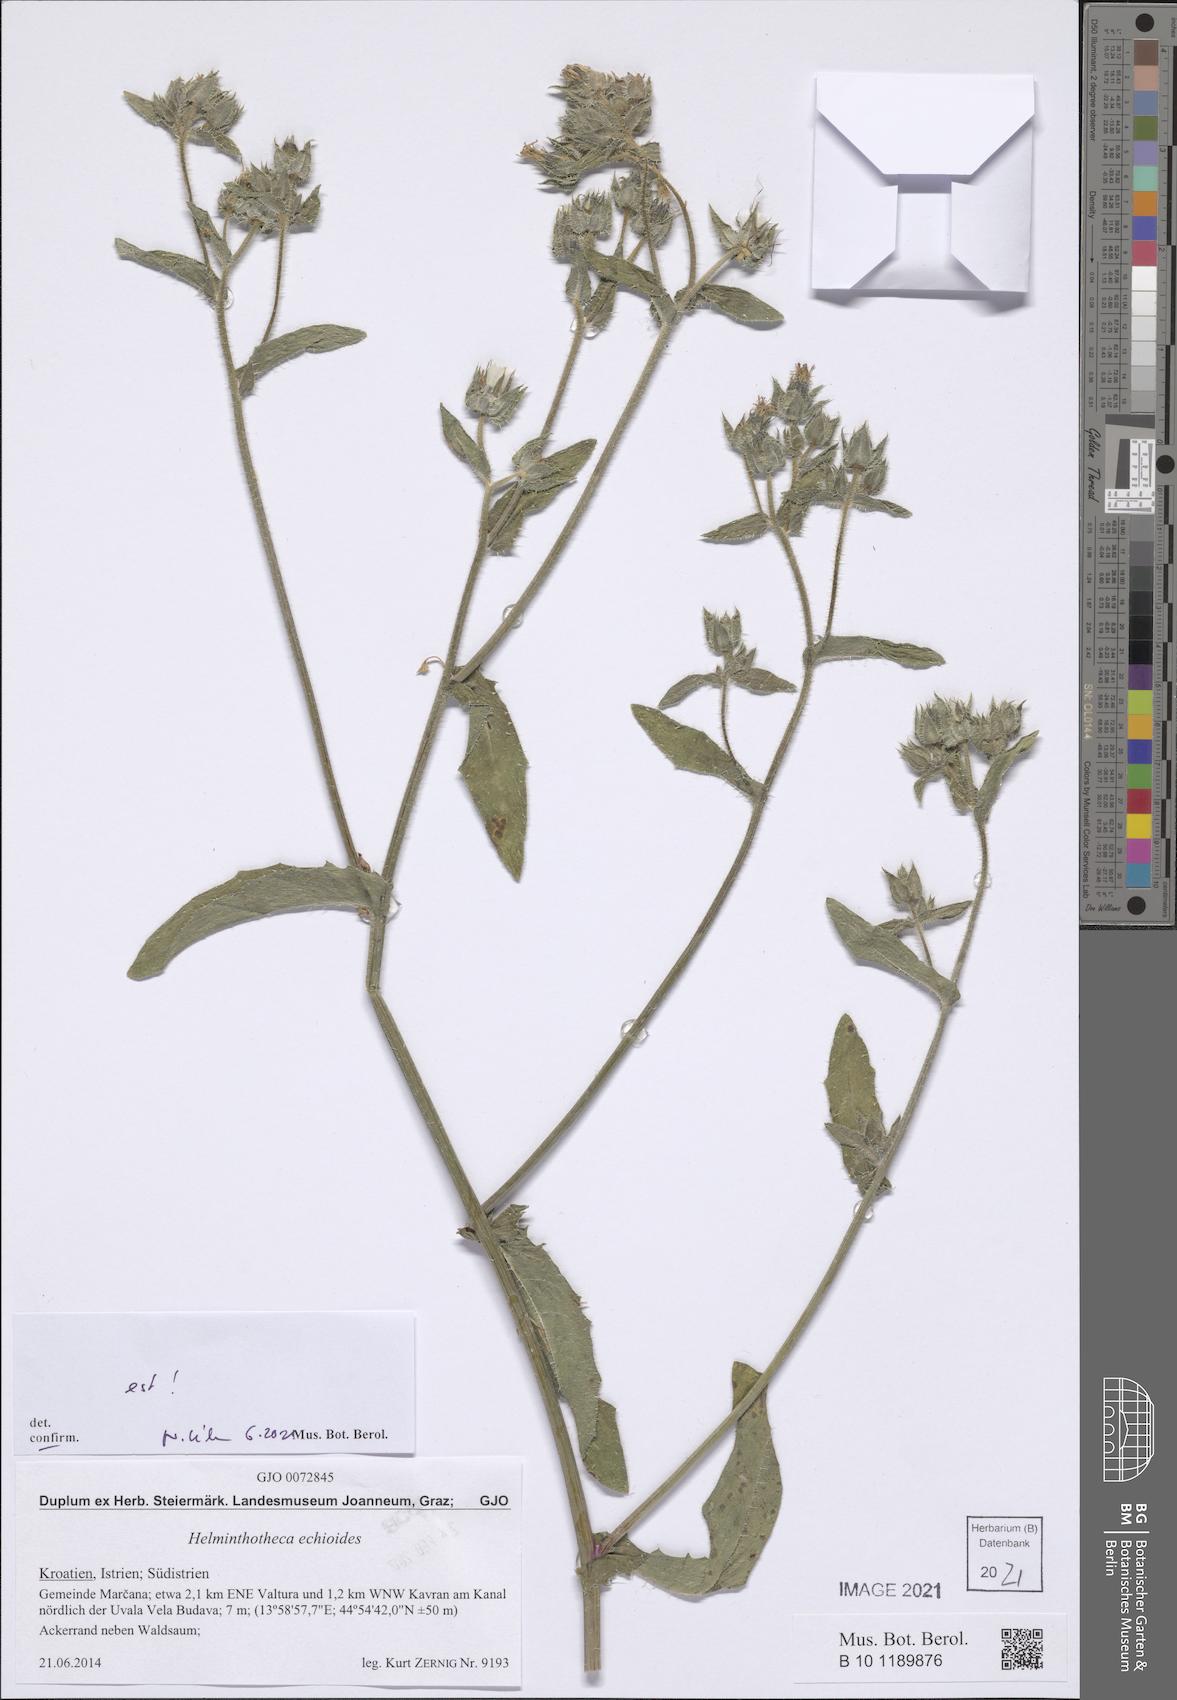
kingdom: Plantae
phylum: Tracheophyta
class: Magnoliopsida
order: Asterales
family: Asteraceae
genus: Helminthotheca
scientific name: Helminthotheca echioides
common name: Ox-tongue
